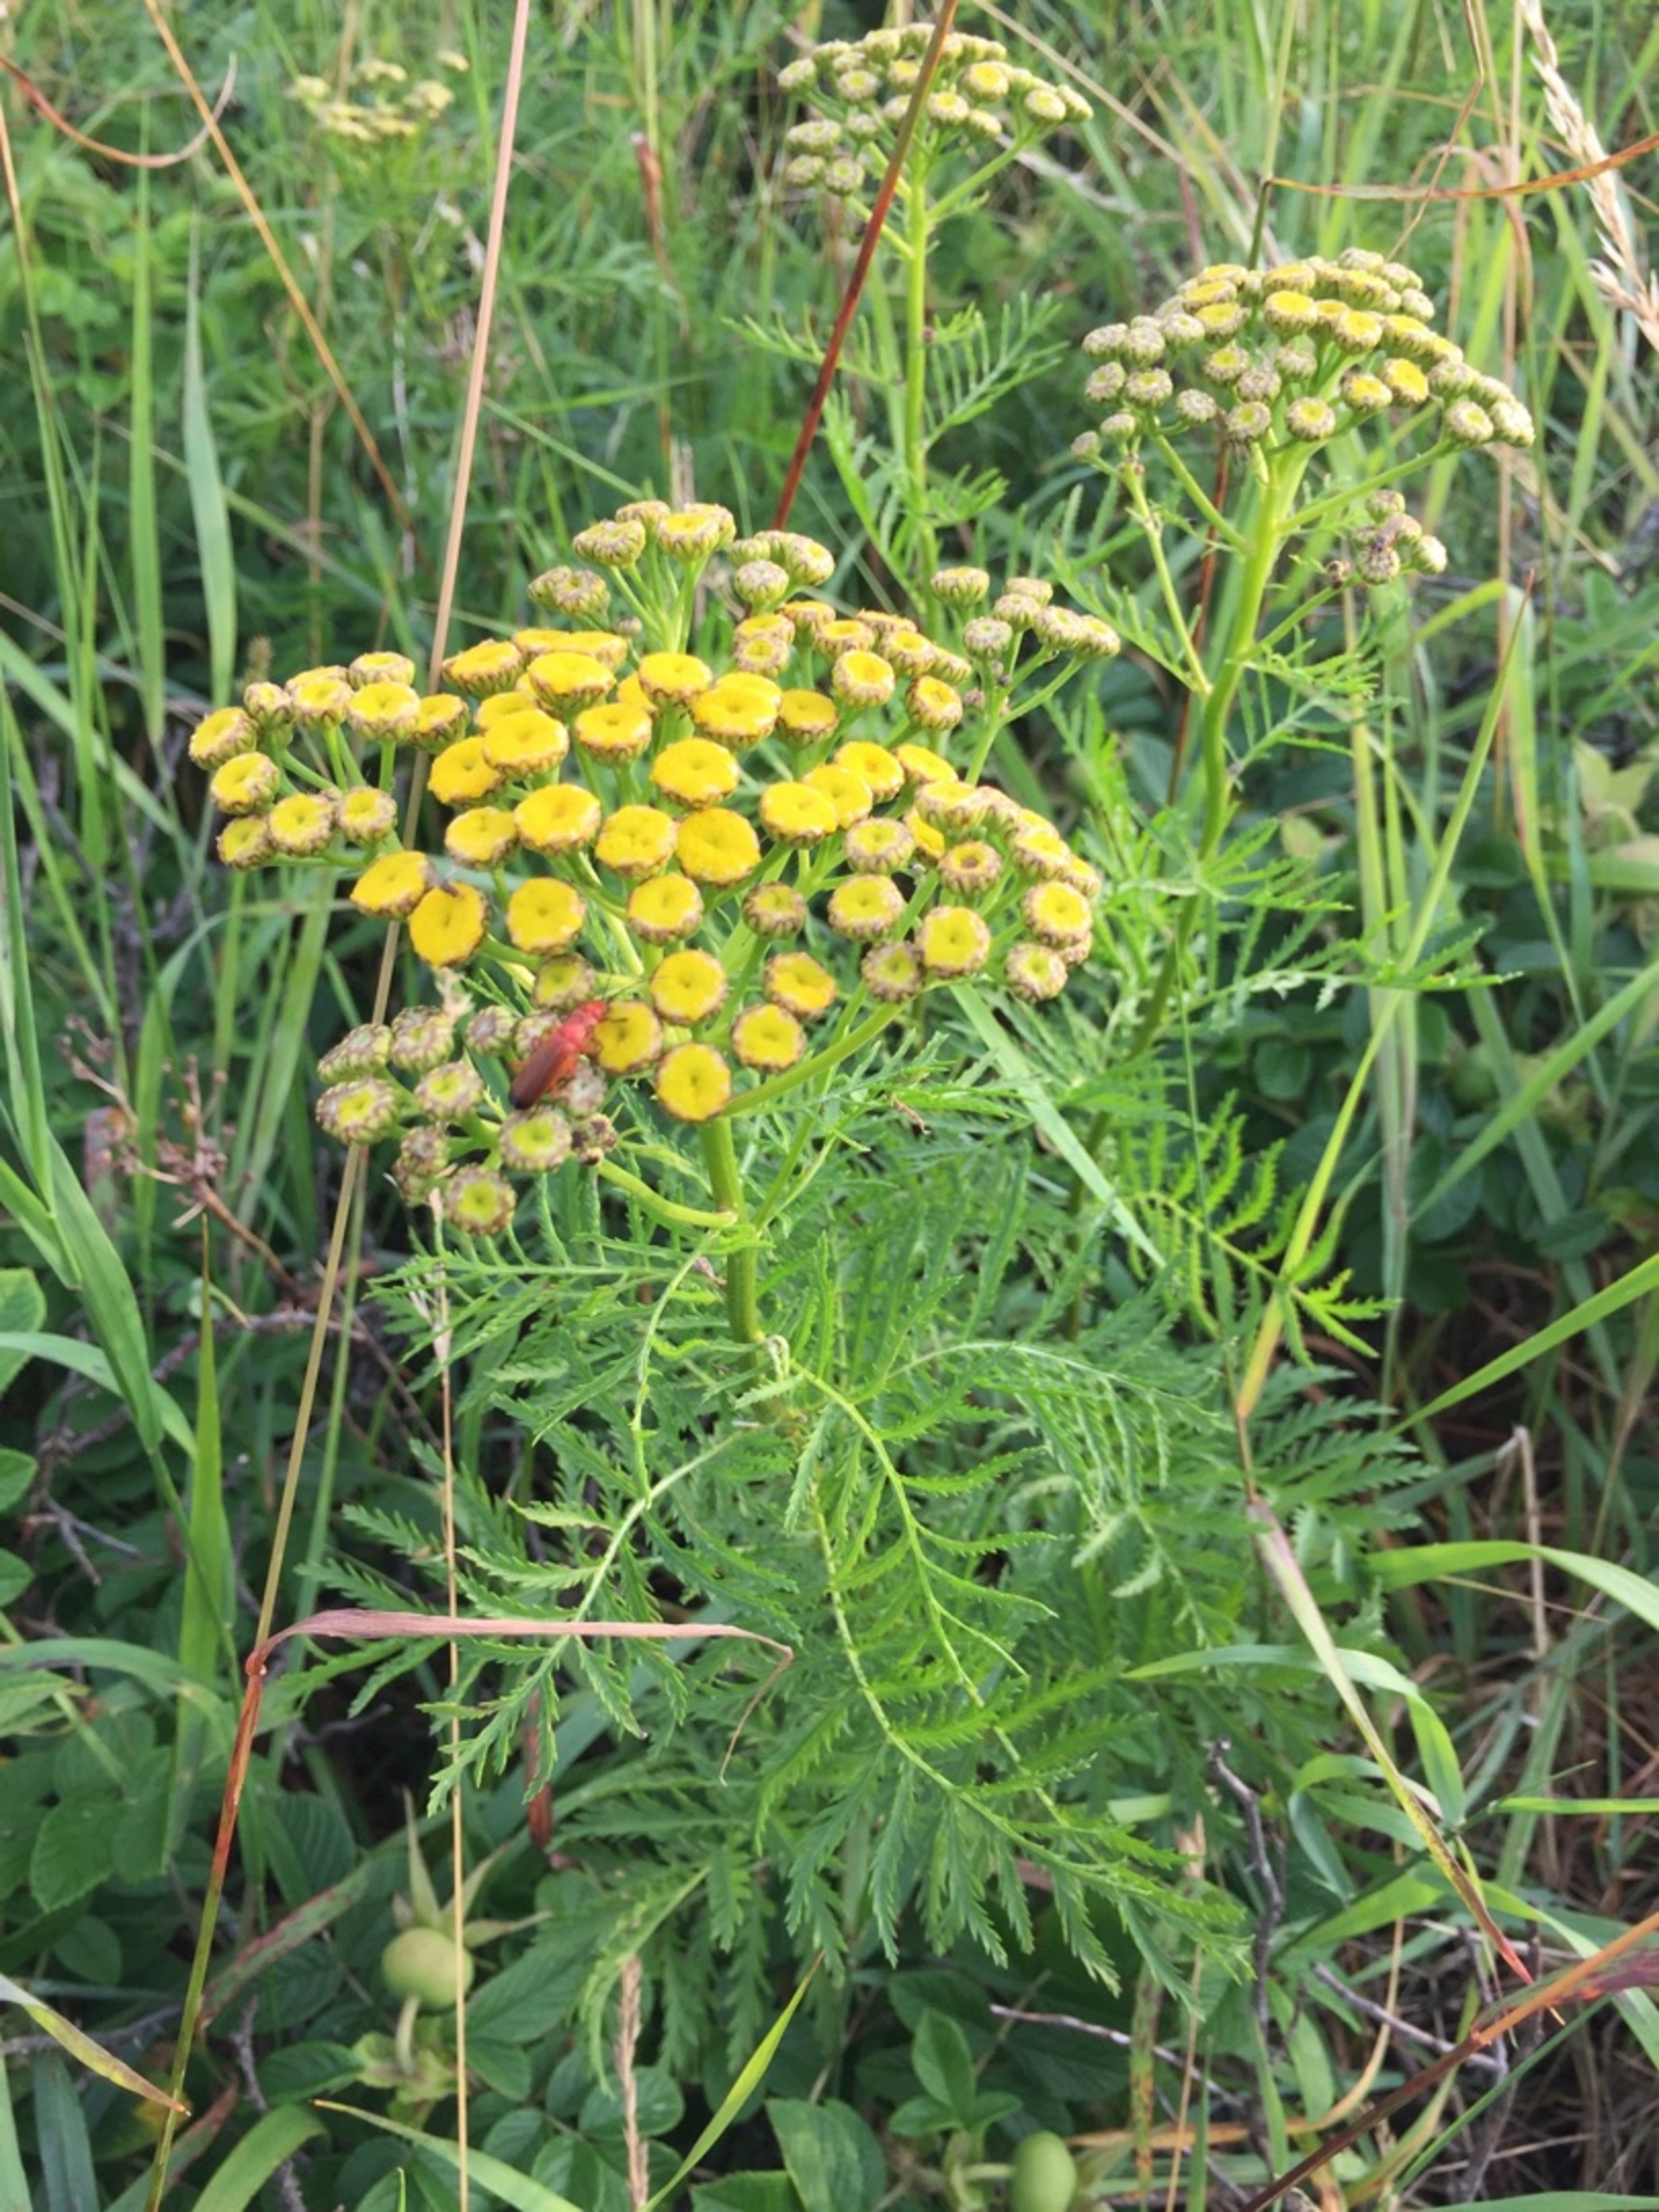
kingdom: Plantae
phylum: Tracheophyta
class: Magnoliopsida
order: Asterales
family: Asteraceae
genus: Tanacetum
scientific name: Tanacetum vulgare
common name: Rejnfan
